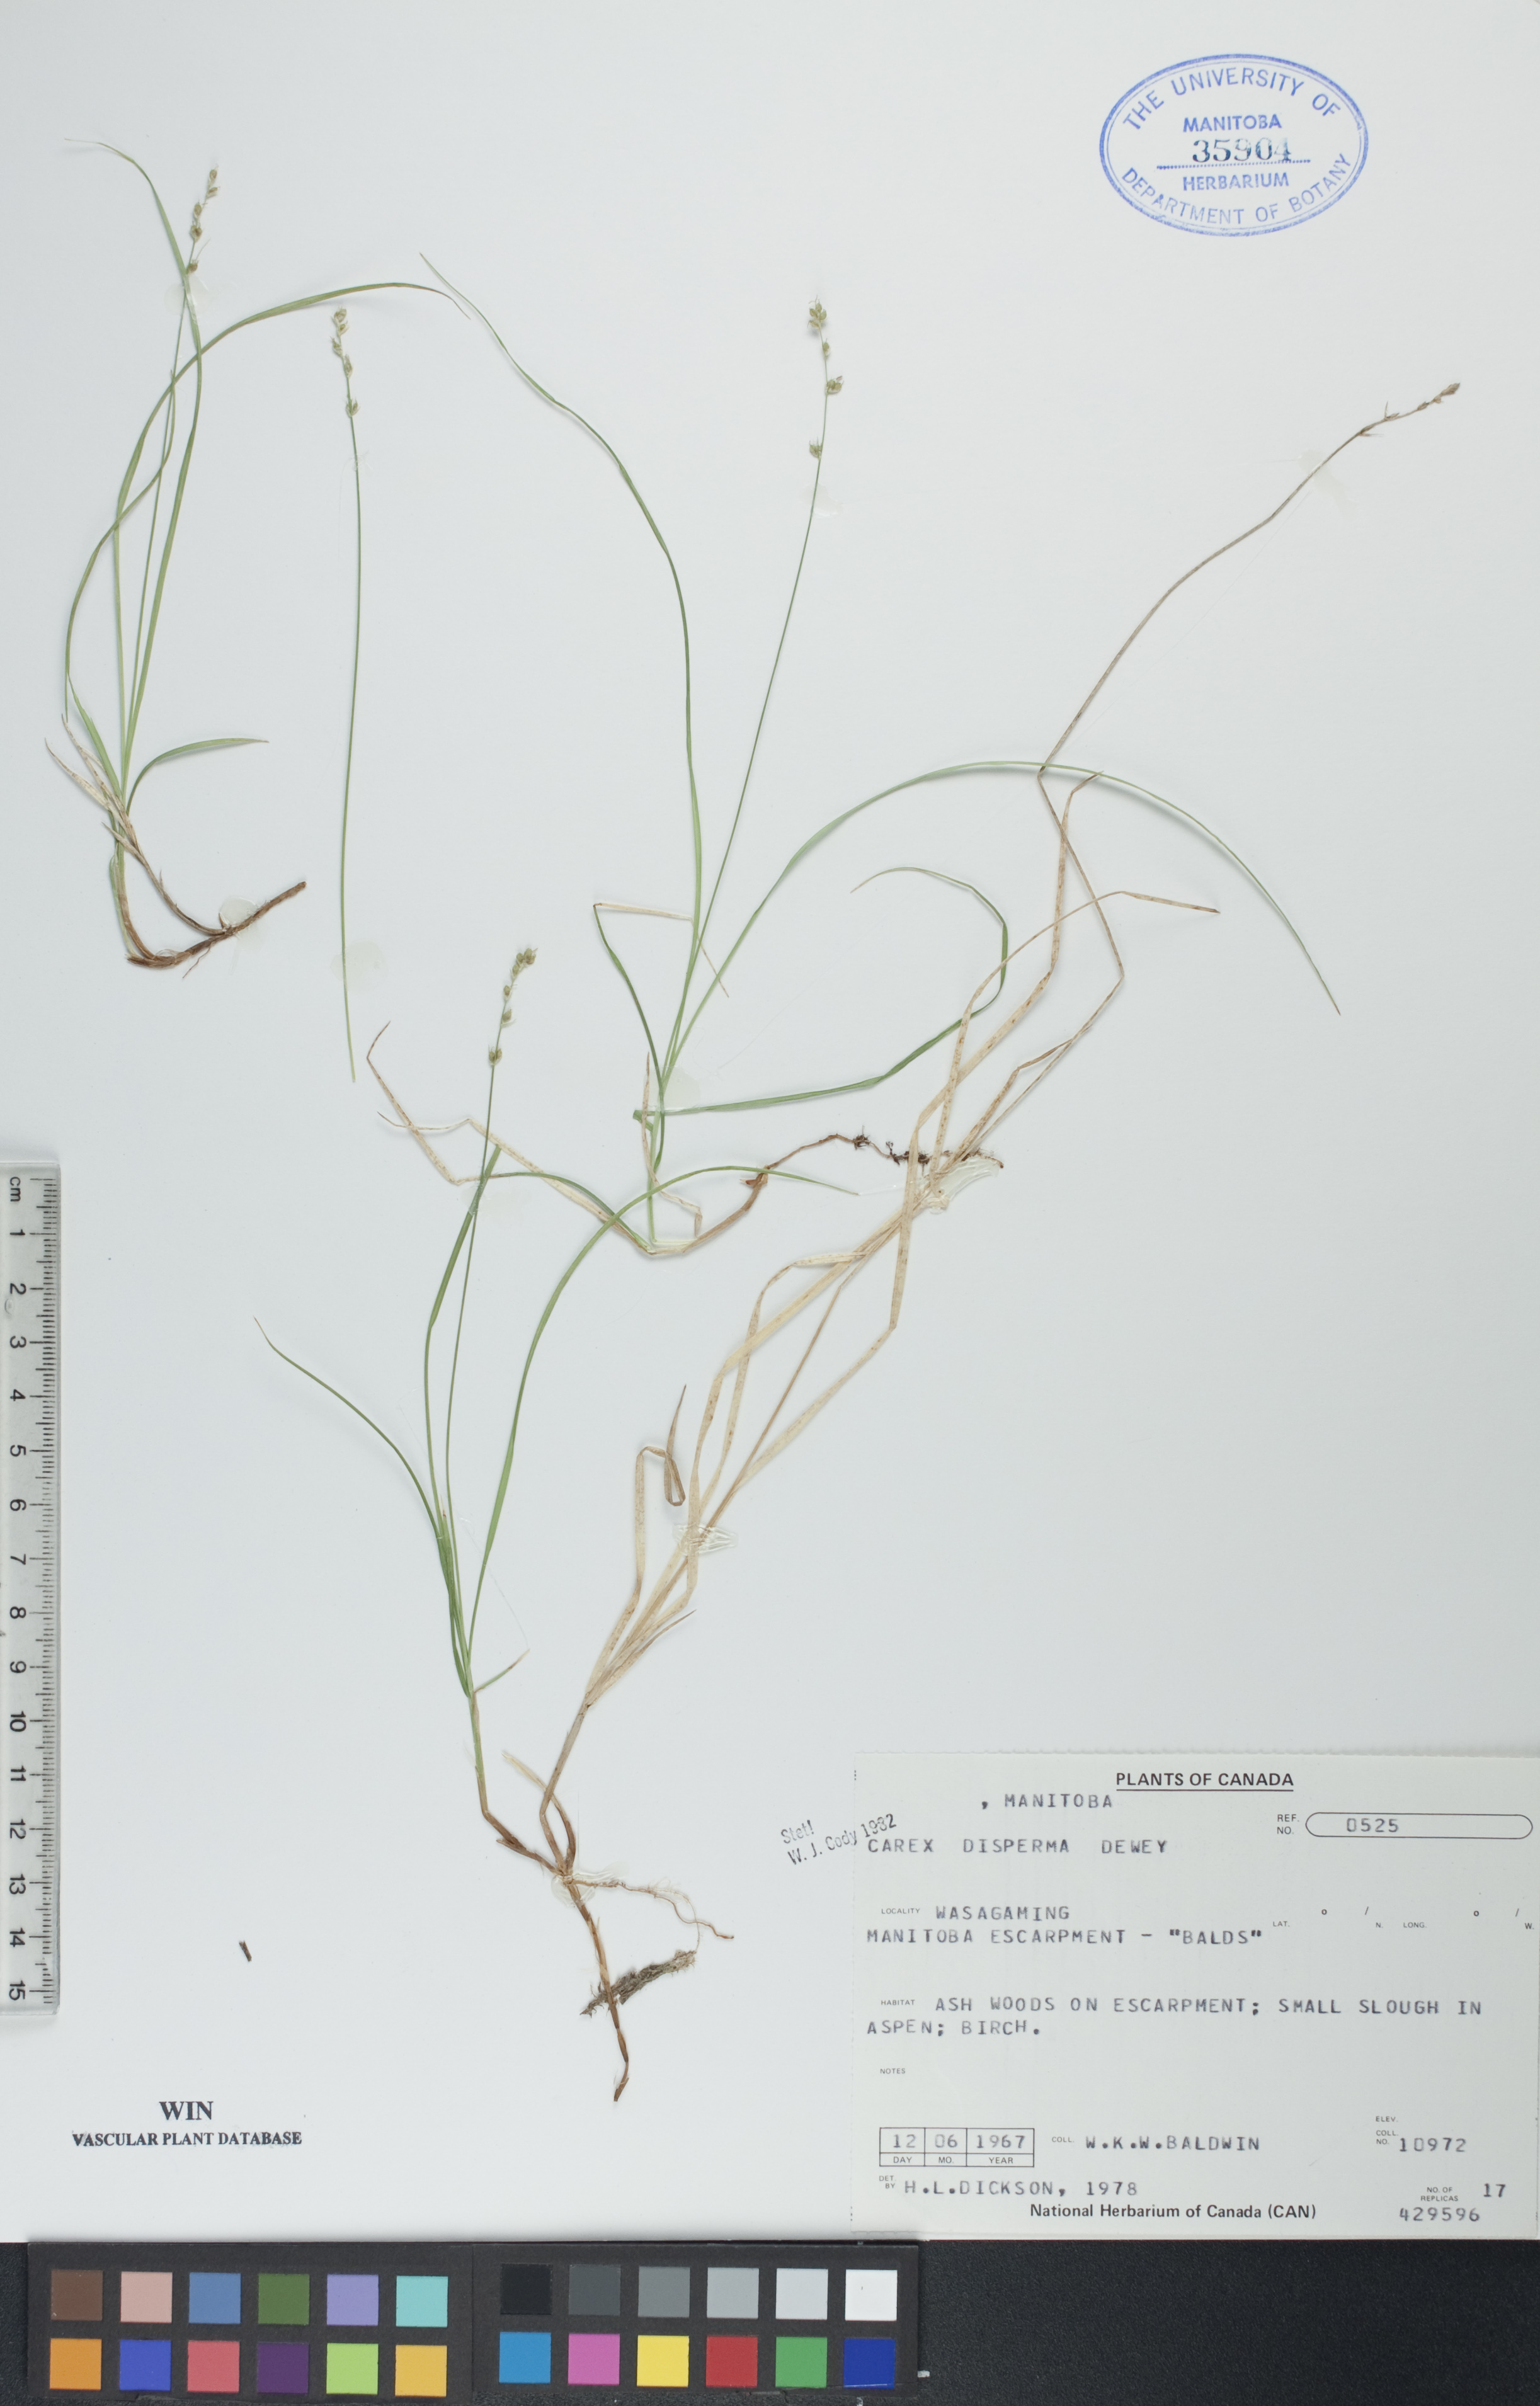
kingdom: Plantae
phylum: Tracheophyta
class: Liliopsida
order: Poales
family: Cyperaceae
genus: Carex
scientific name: Carex disperma
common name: Short-leaved sedge
